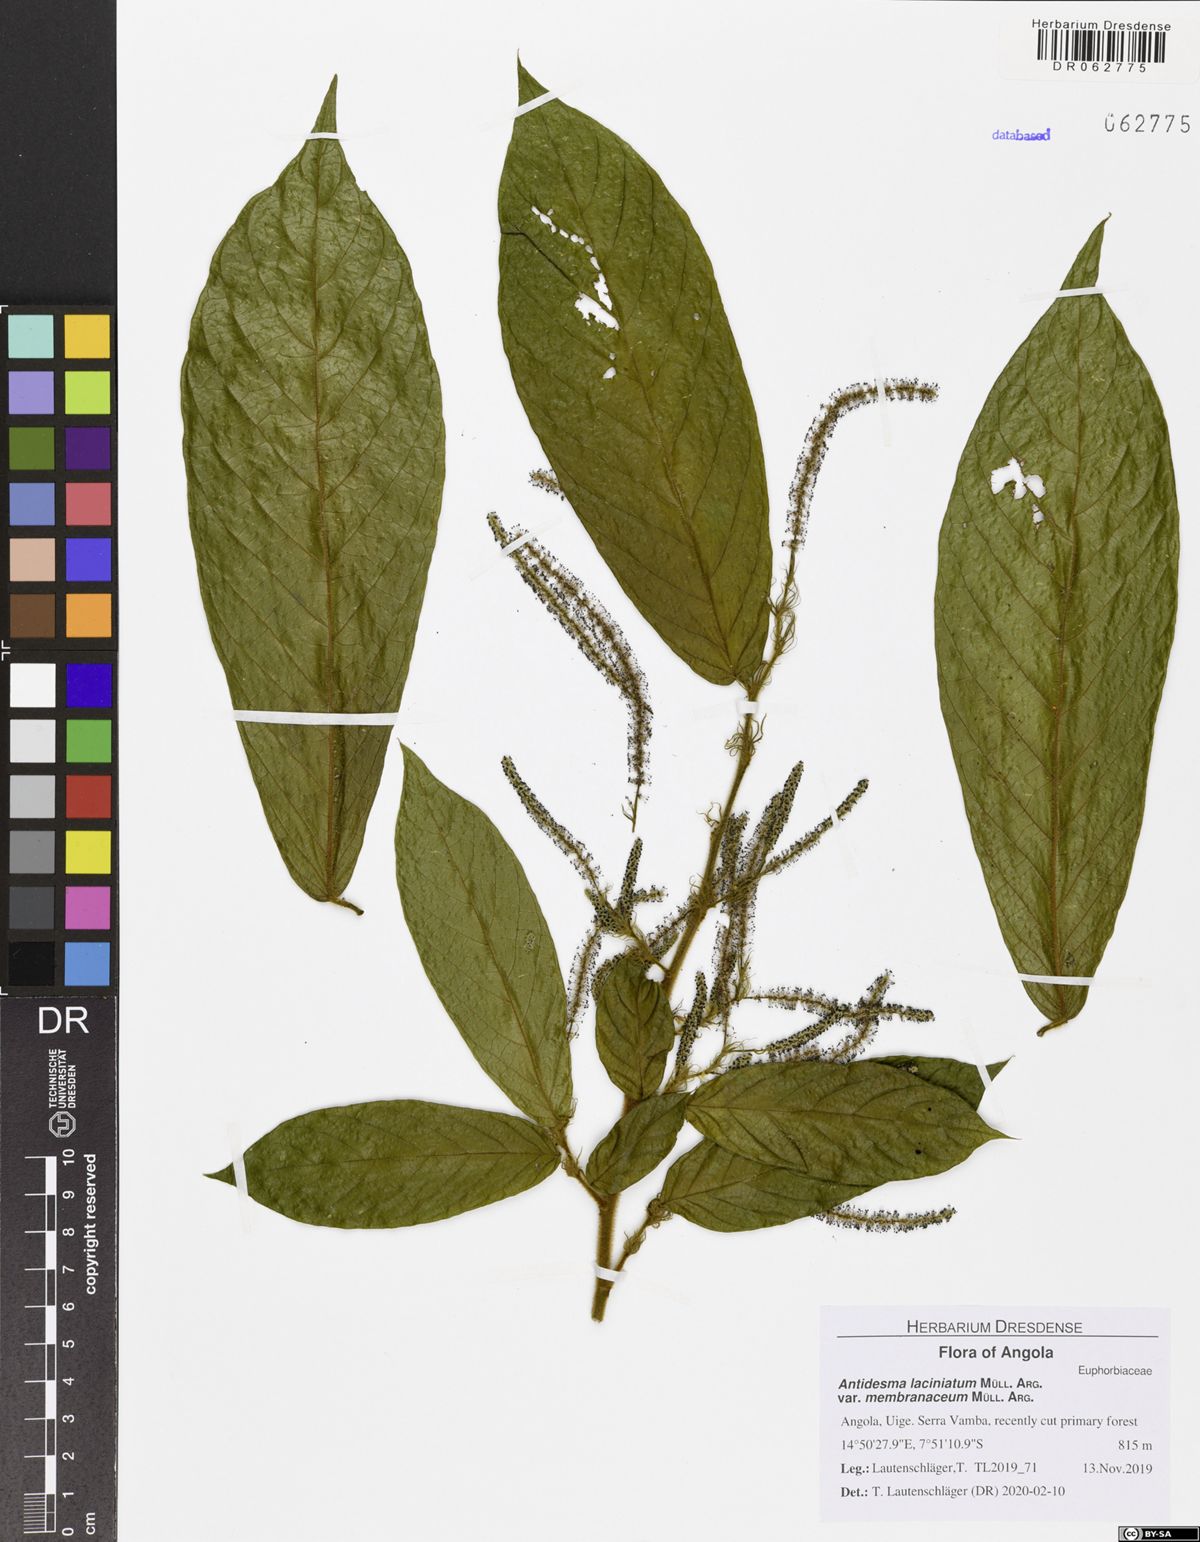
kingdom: Plantae
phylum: Tracheophyta
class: Magnoliopsida
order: Malpighiales
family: Phyllanthaceae
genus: Antidesma
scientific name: Antidesma laciniatum
